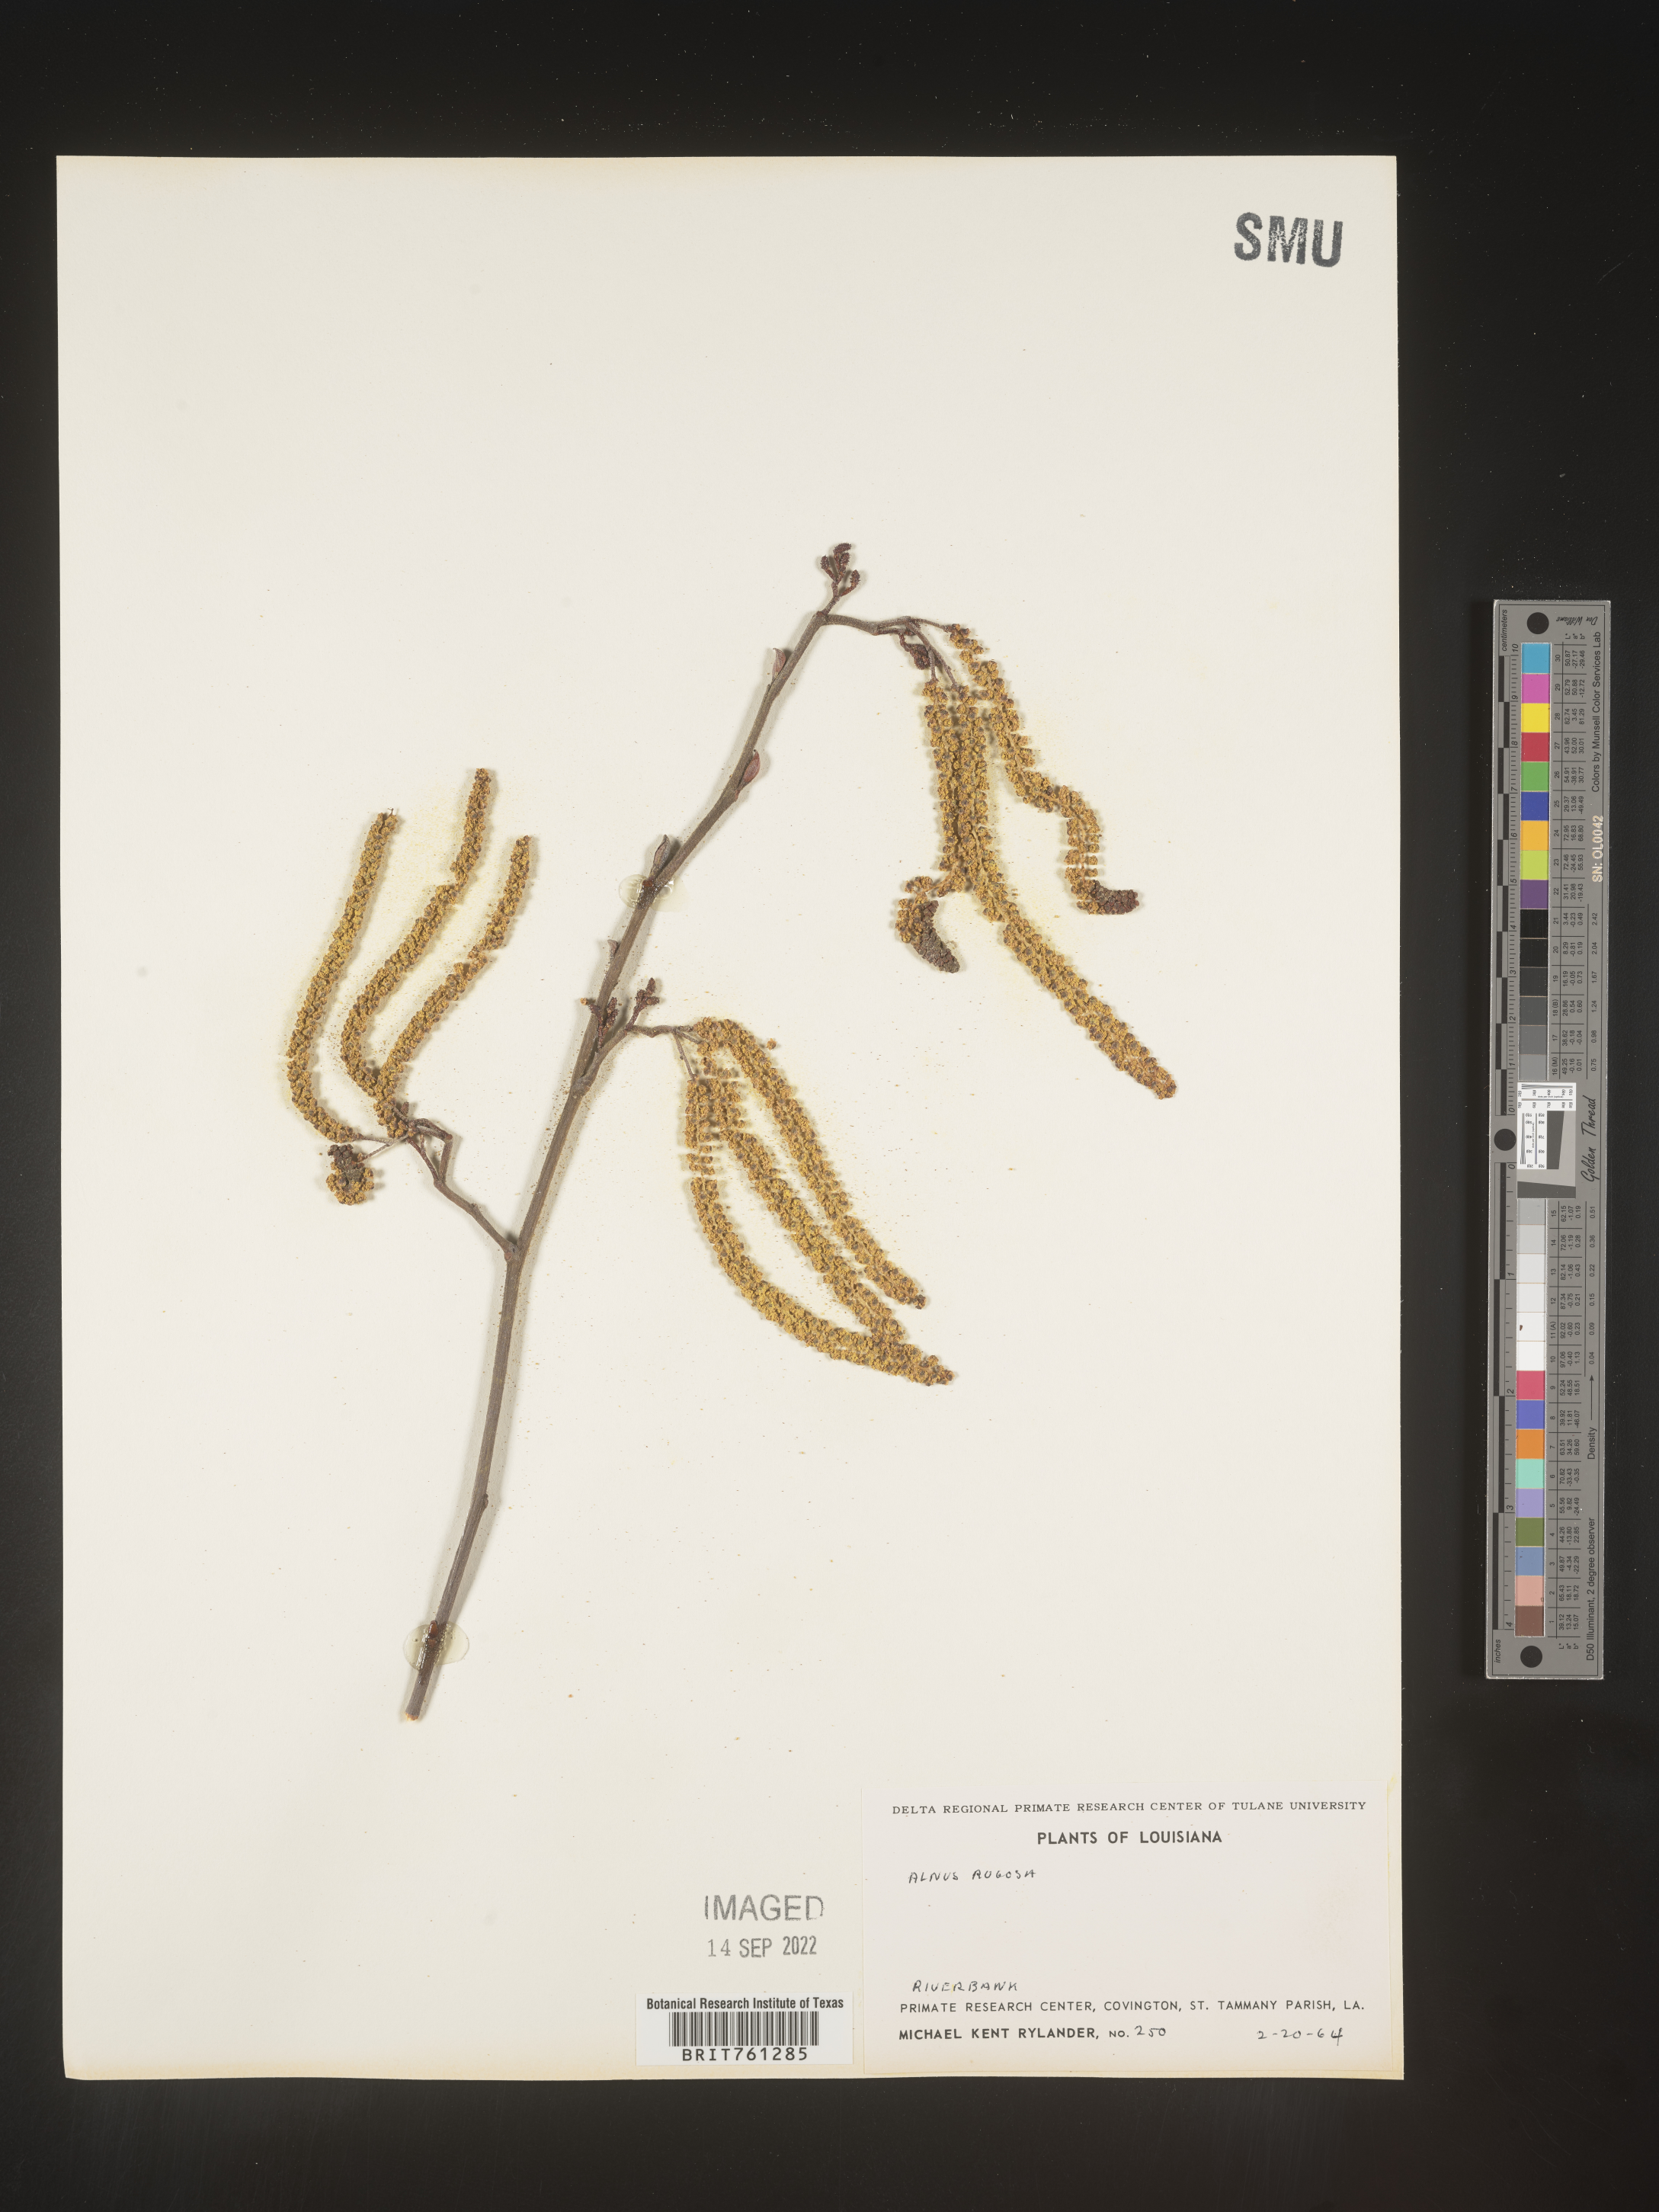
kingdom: Plantae
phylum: Tracheophyta
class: Magnoliopsida
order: Fagales
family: Betulaceae
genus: Alnus
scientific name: Alnus incana
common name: Grey alder
